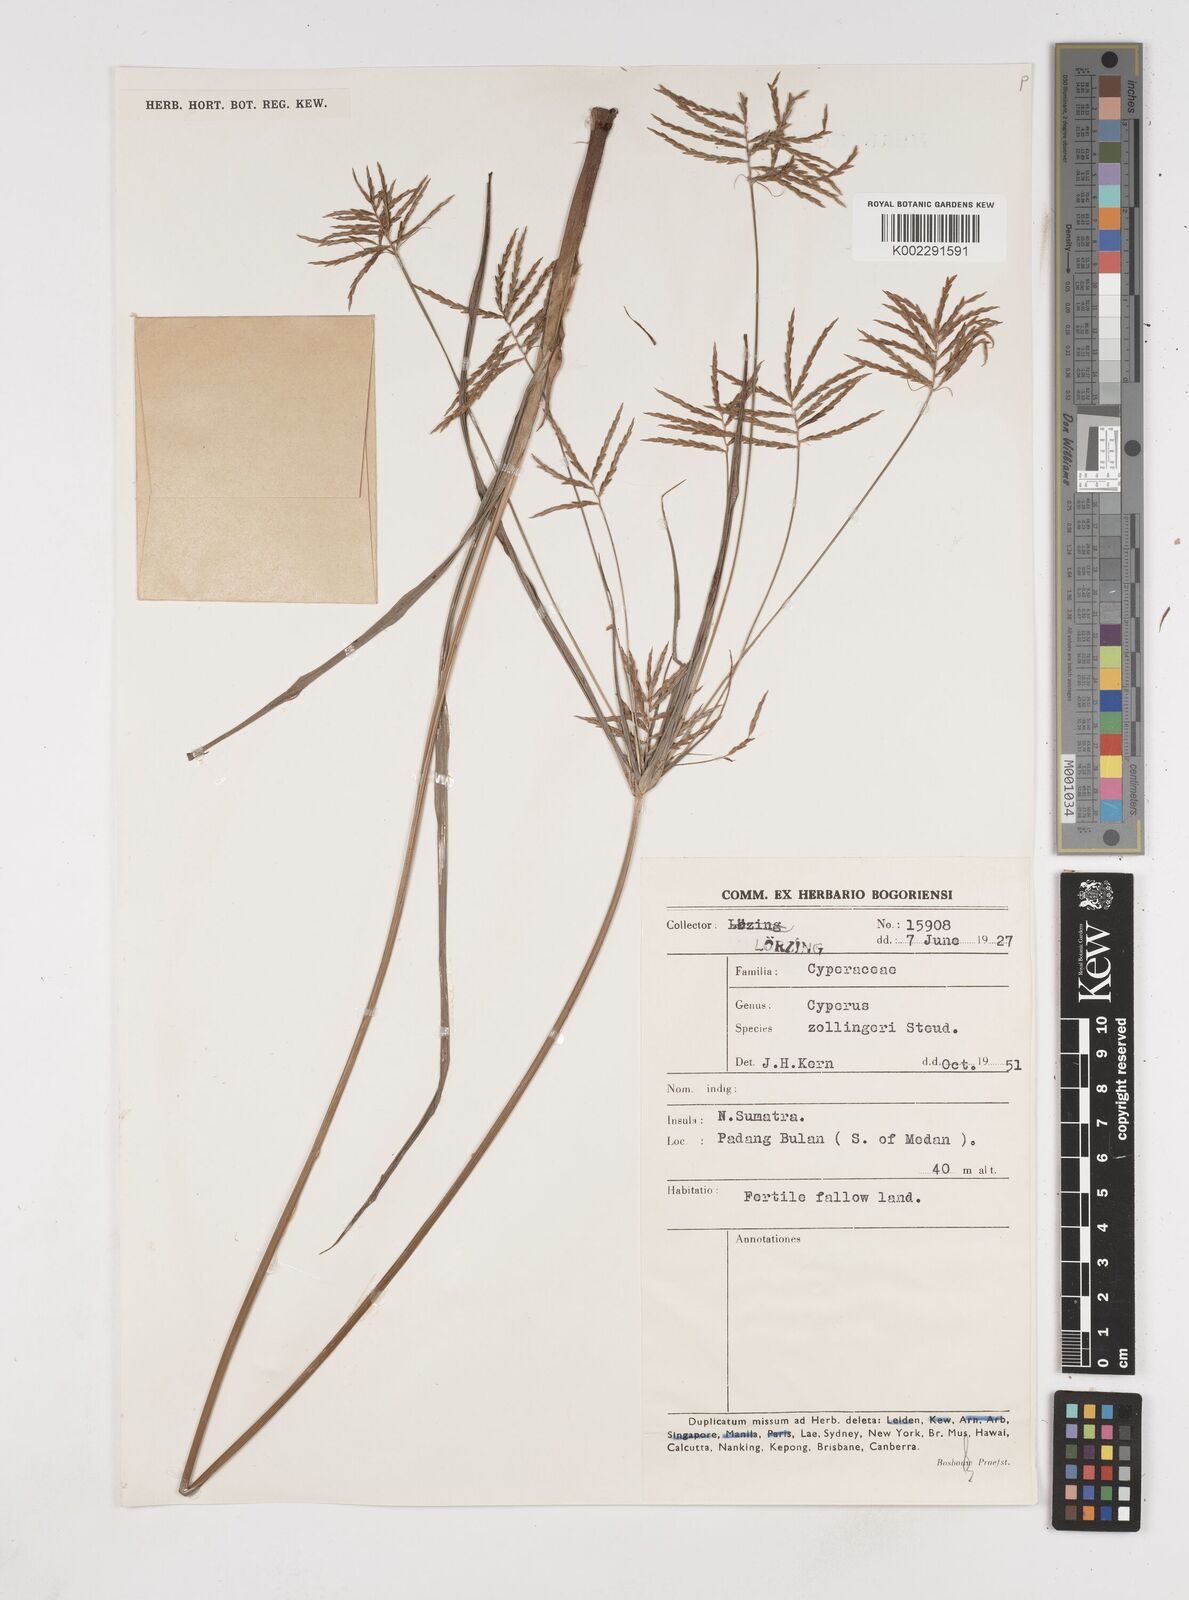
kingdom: Plantae
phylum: Tracheophyta
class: Liliopsida
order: Poales
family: Cyperaceae
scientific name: Cyperaceae
